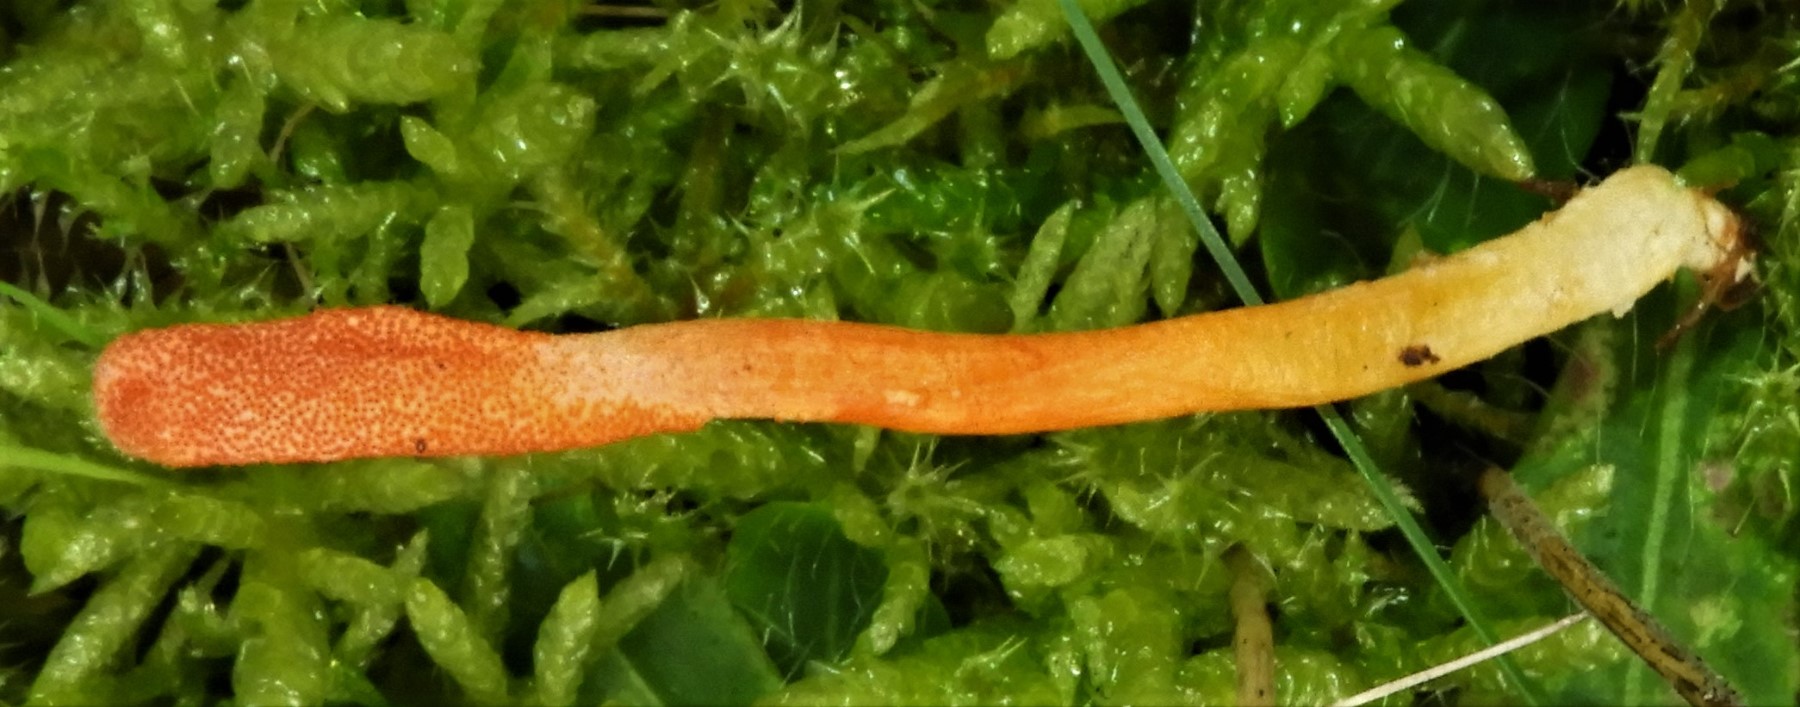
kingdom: Fungi
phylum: Ascomycota
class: Sordariomycetes
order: Hypocreales
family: Cordycipitaceae
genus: Cordyceps
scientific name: Cordyceps militaris
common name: puppe-snyltekølle
